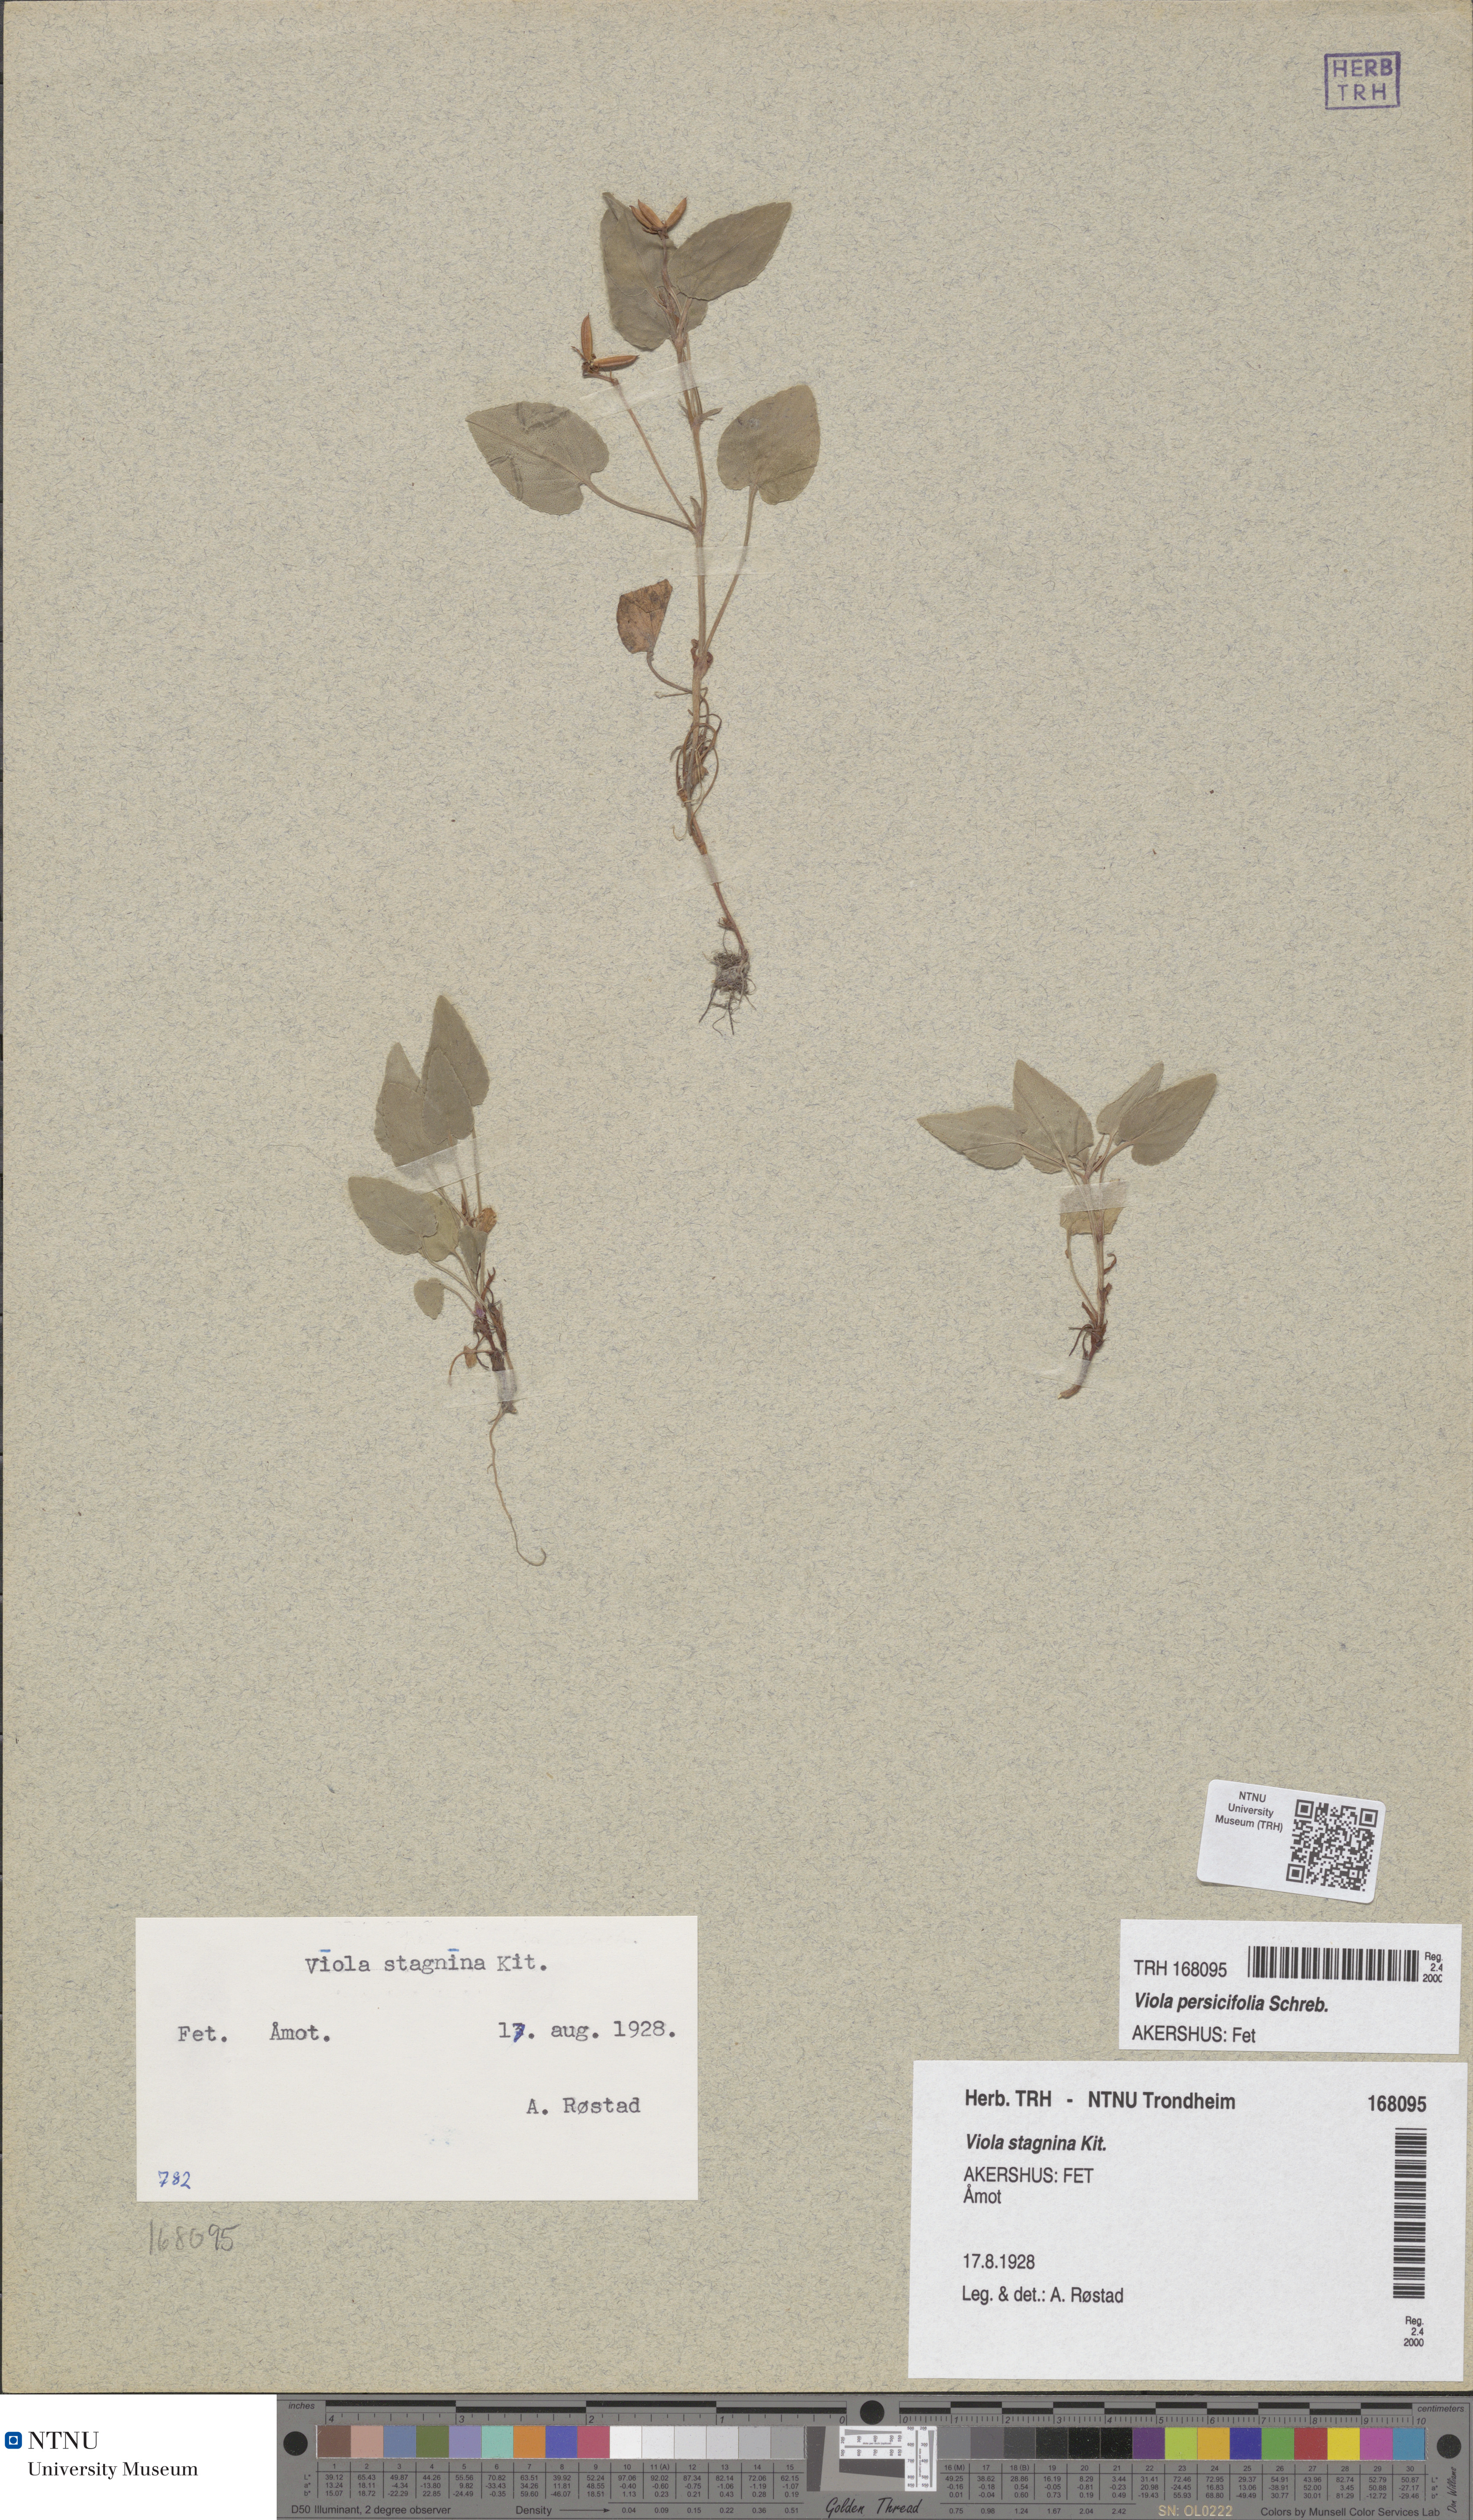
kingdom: Plantae
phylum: Tracheophyta
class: Magnoliopsida
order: Malpighiales
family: Violaceae
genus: Viola
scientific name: Viola stagnina
